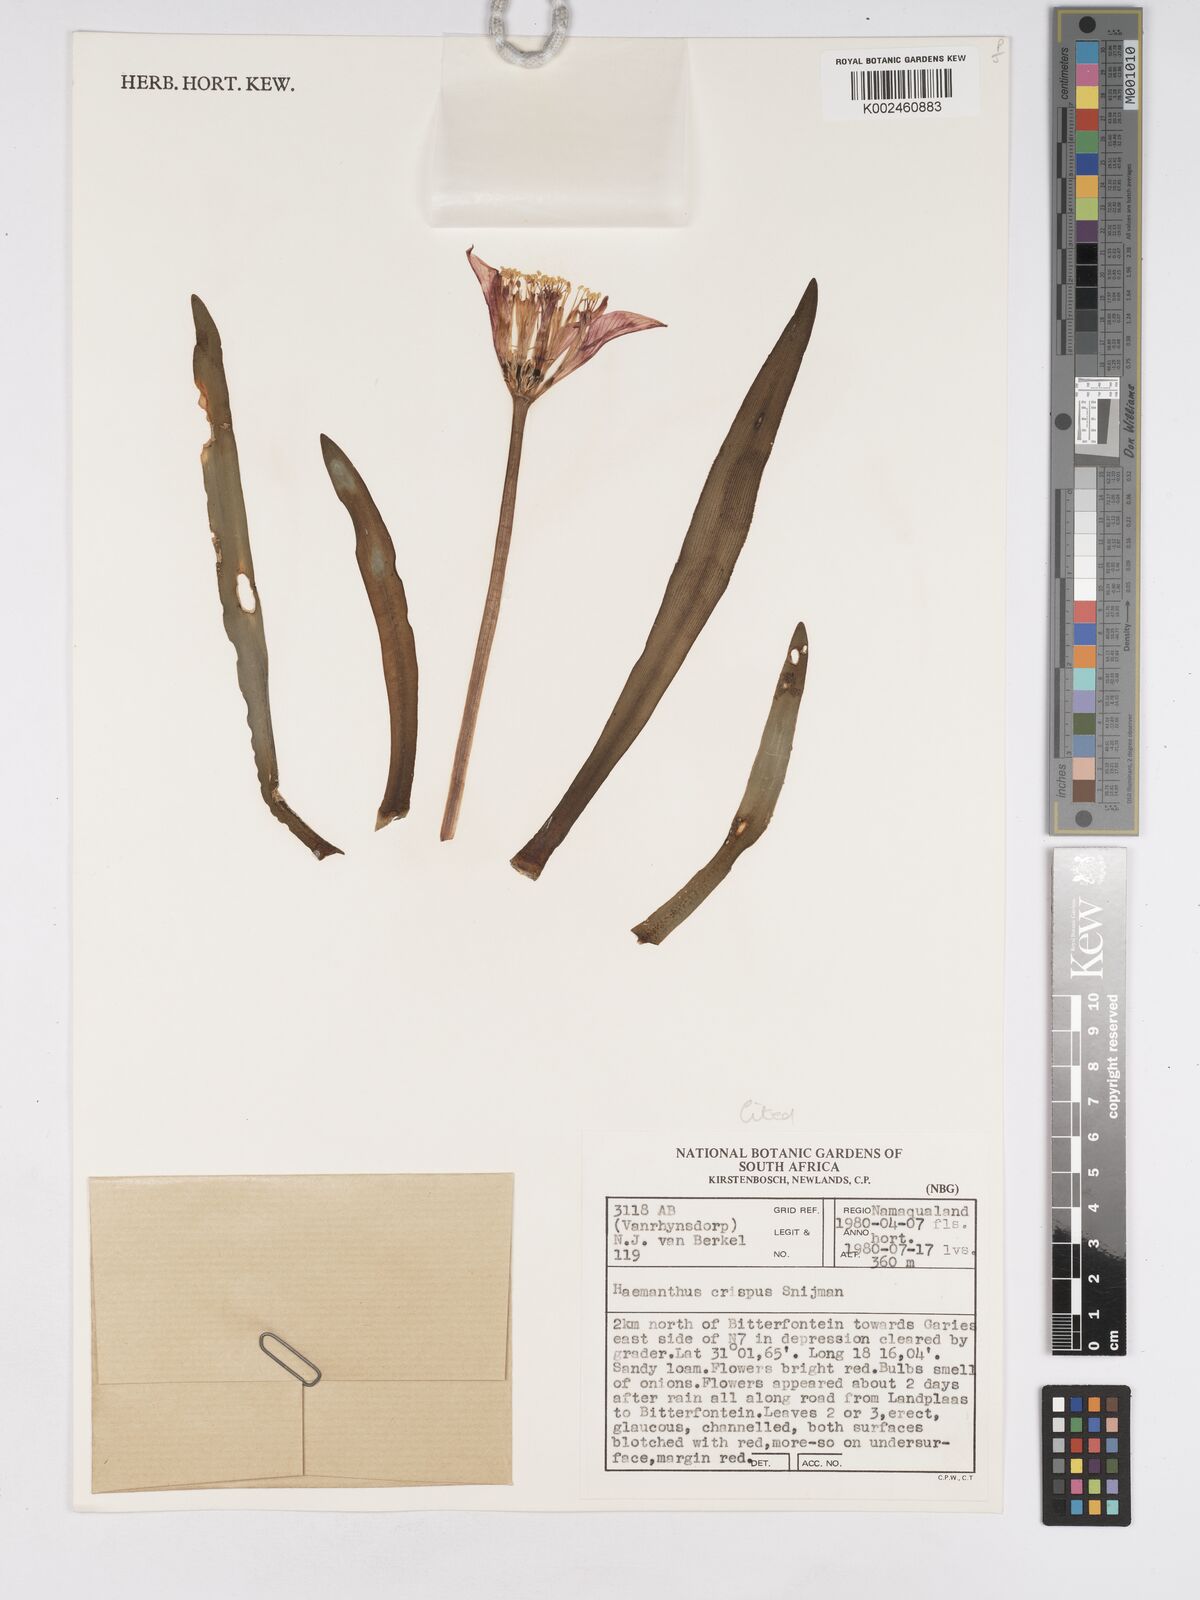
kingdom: Plantae
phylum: Tracheophyta
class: Liliopsida
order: Asparagales
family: Amaryllidaceae
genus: Haemanthus
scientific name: Haemanthus crispus
